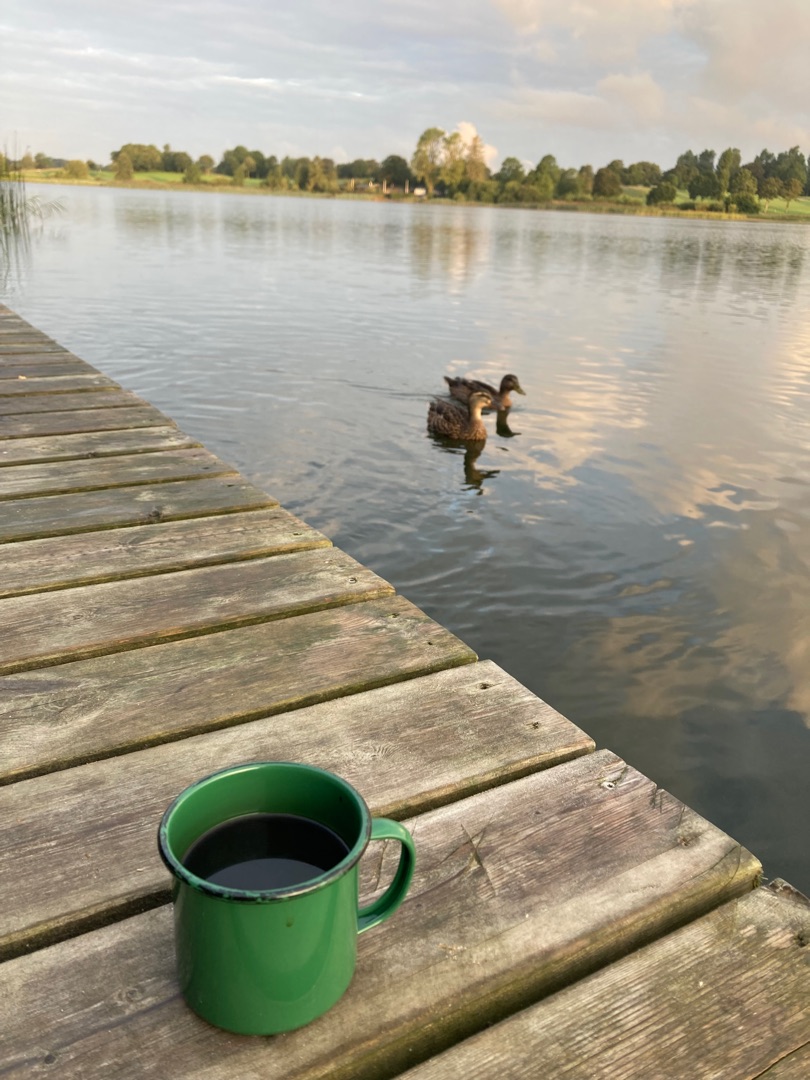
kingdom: Animalia
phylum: Chordata
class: Aves
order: Anseriformes
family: Anatidae
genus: Anas
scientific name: Anas platyrhynchos
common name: Gråand
